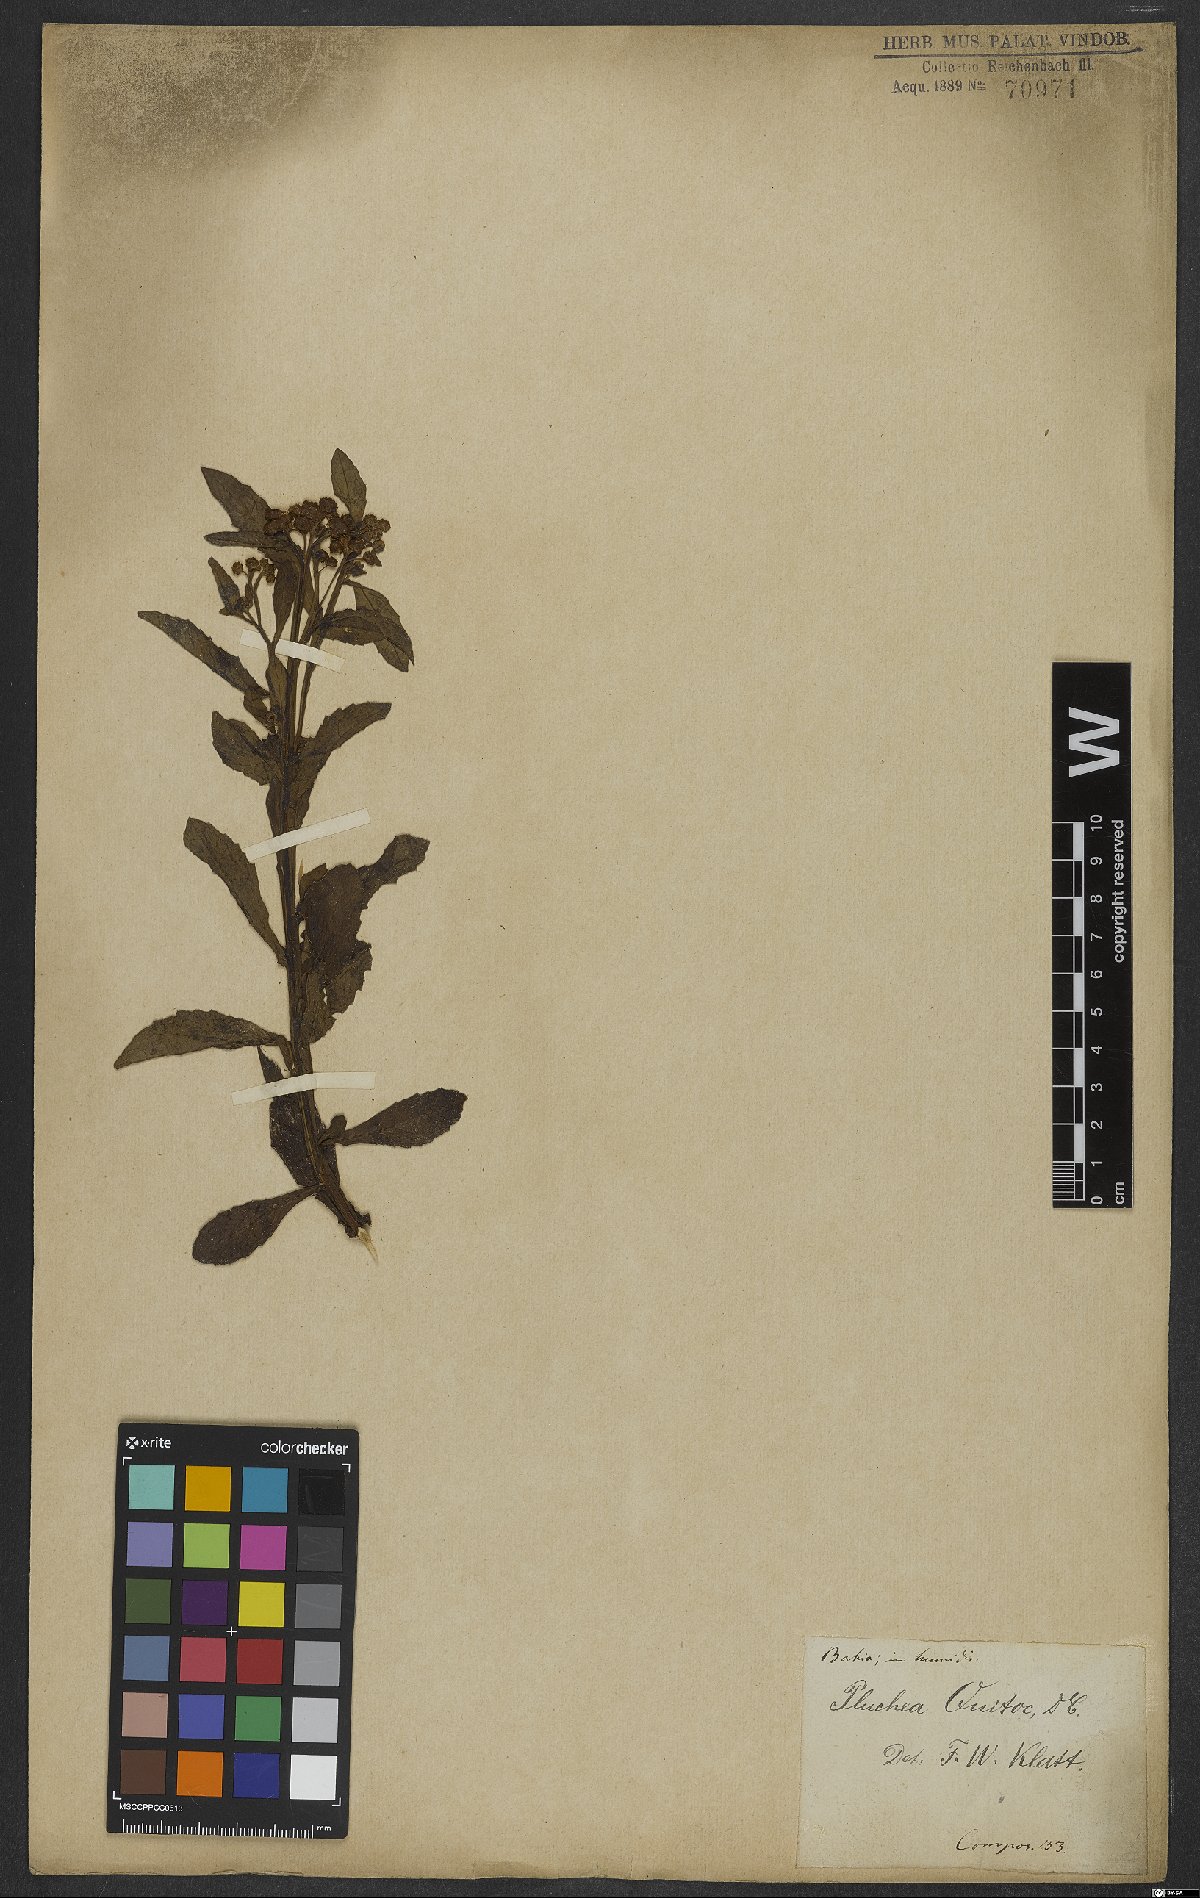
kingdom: Plantae
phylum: Tracheophyta
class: Magnoliopsida
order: Asterales
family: Asteraceae
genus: Pluchea
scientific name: Pluchea sagittalis
